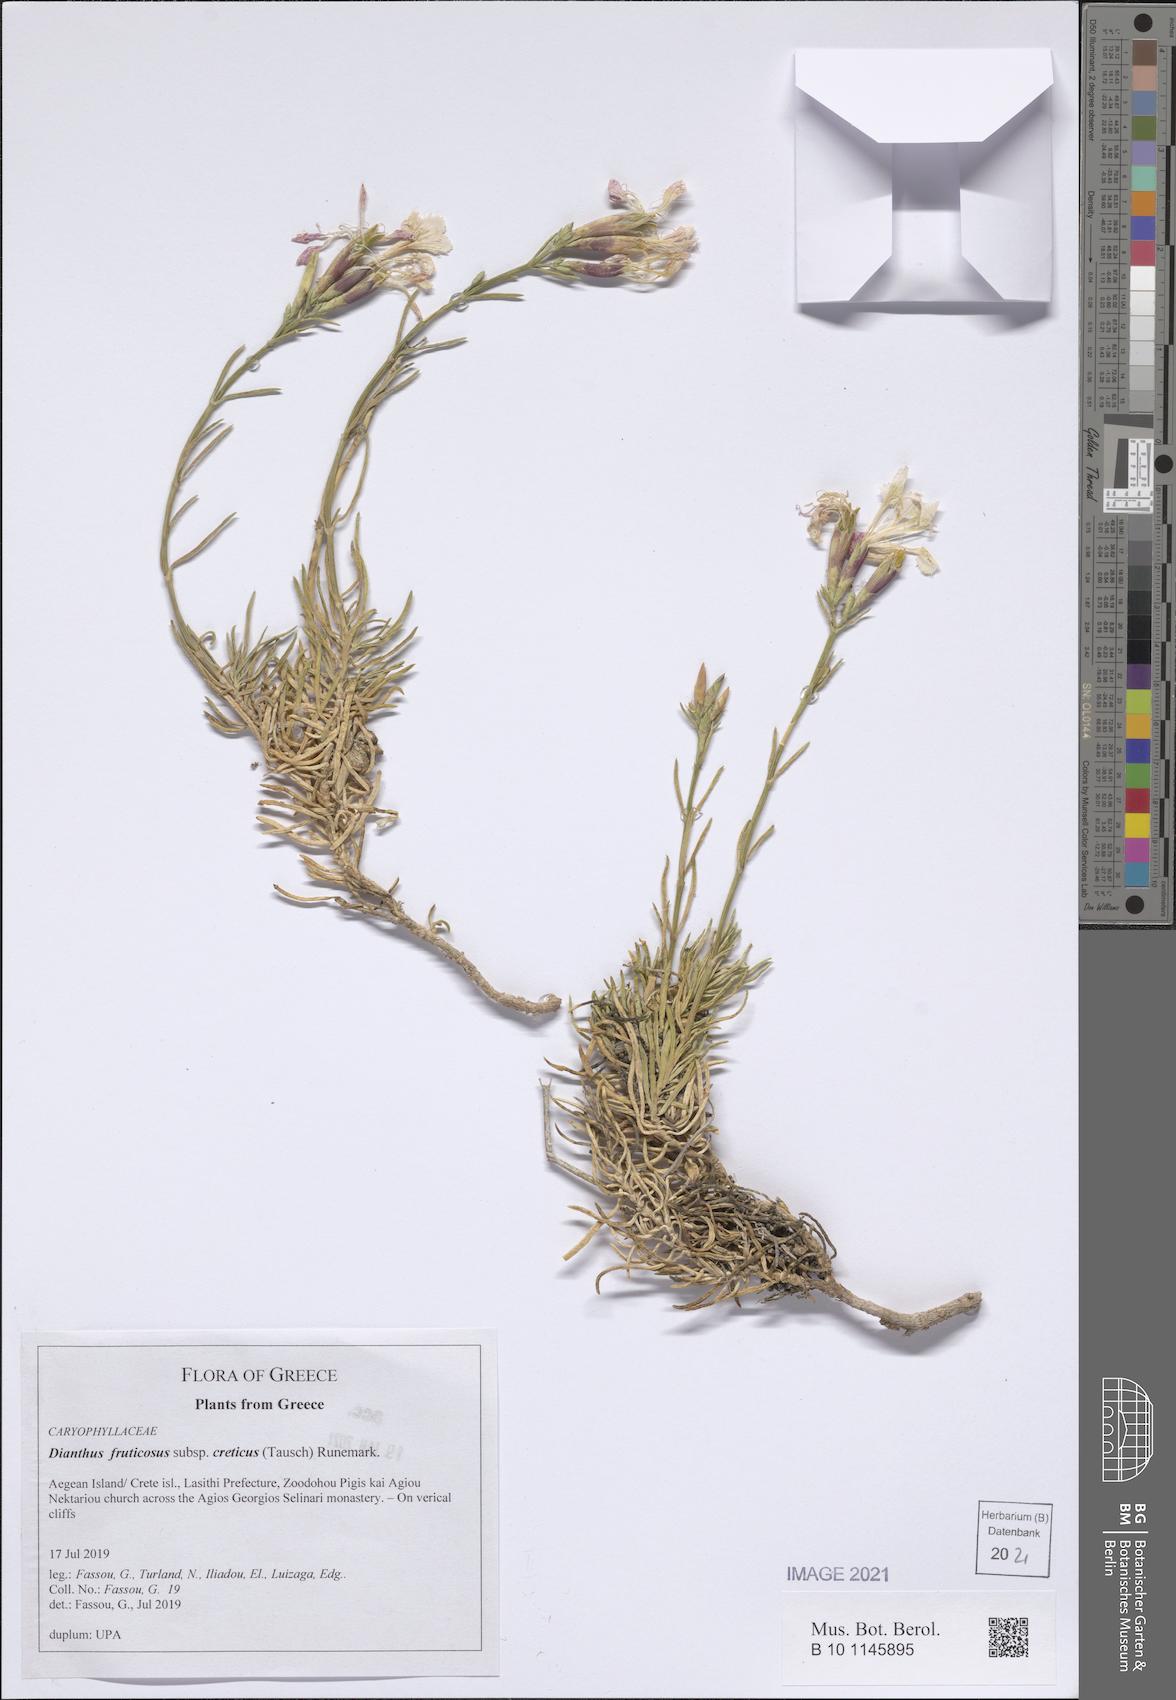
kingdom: Plantae
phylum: Tracheophyta
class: Magnoliopsida
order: Caryophyllales
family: Caryophyllaceae
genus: Dianthus
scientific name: Dianthus fruticosus
